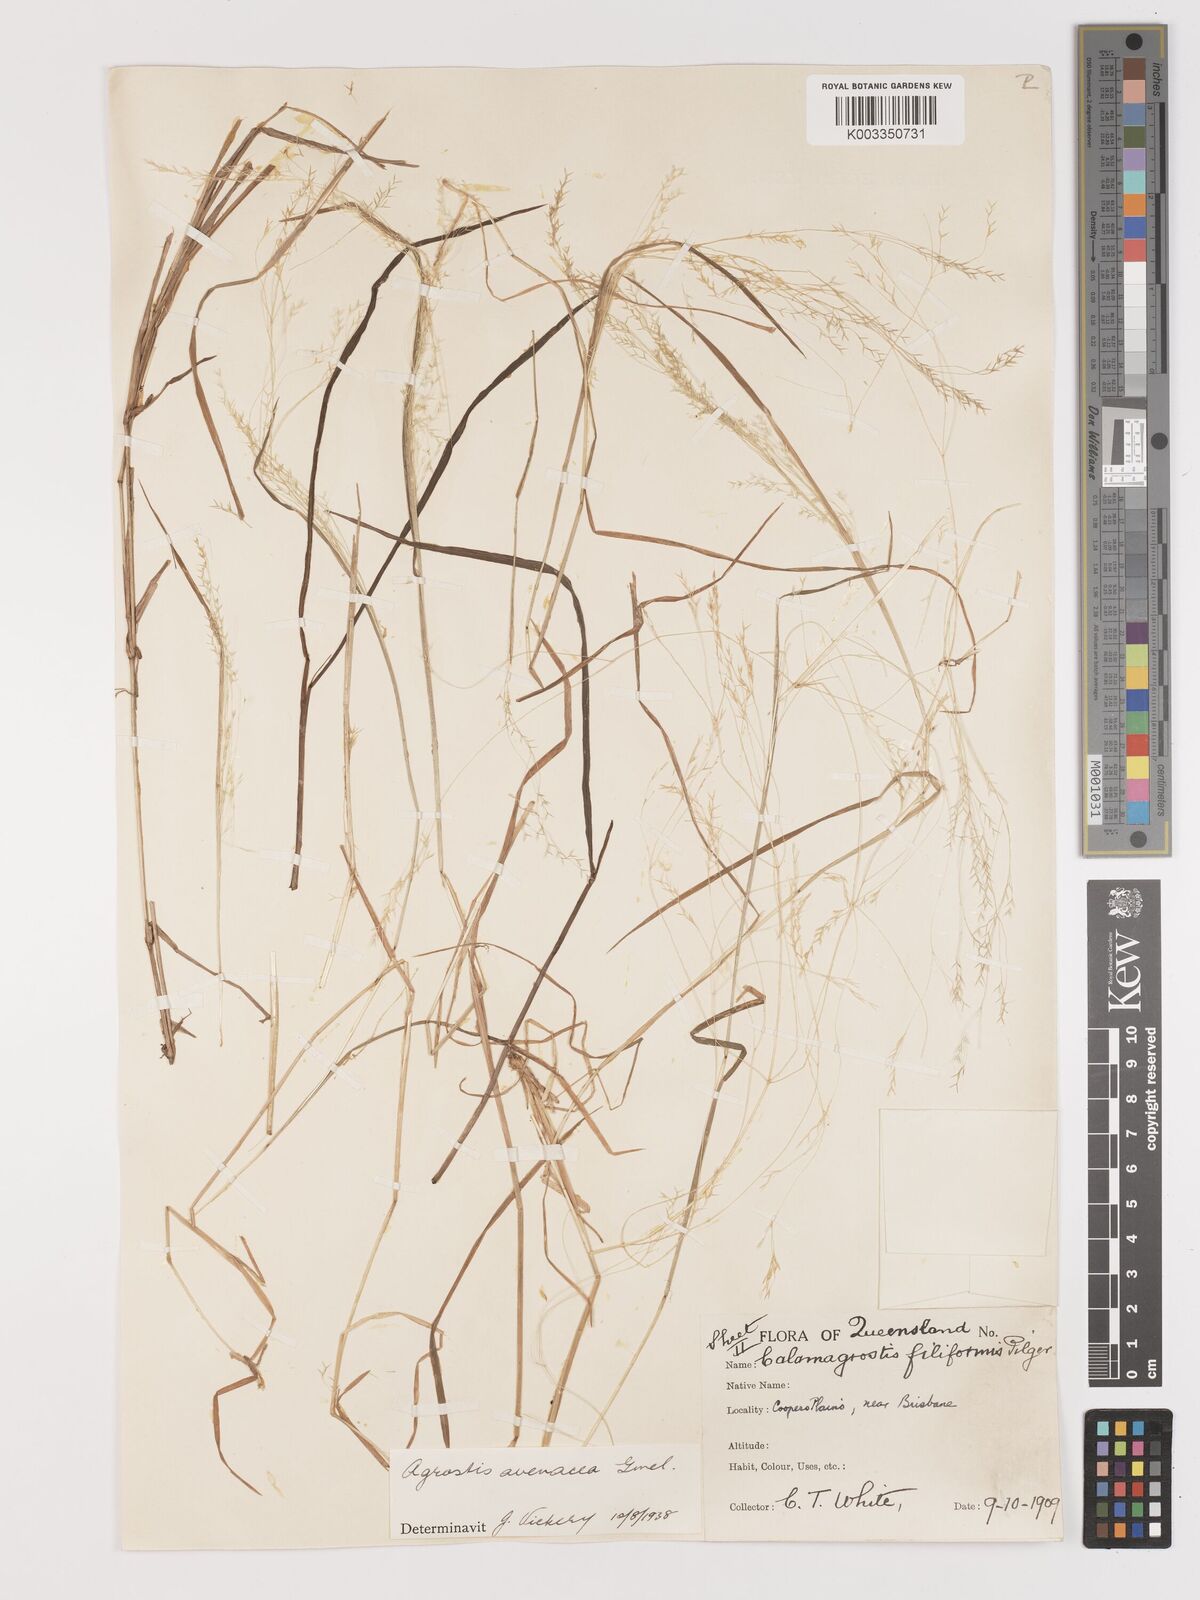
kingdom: Plantae
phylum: Tracheophyta
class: Liliopsida
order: Poales
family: Poaceae
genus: Lachnagrostis
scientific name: Lachnagrostis filiformis
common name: Bentgrass
